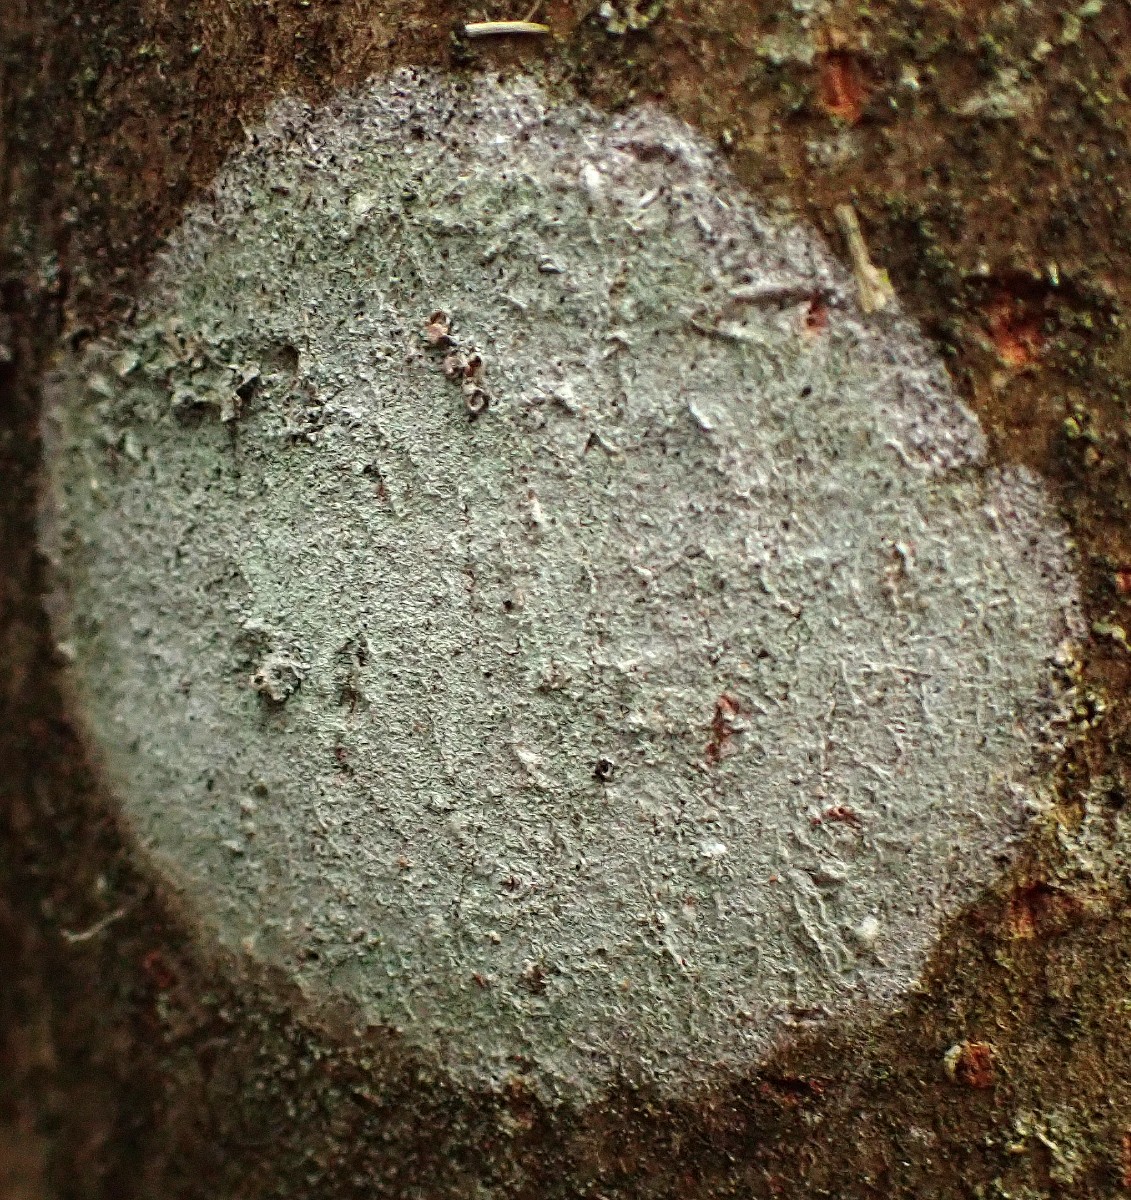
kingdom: Fungi
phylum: Ascomycota
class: Lecanoromycetes
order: Ostropales
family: Phlyctidaceae
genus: Phlyctis
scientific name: Phlyctis argena
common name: almindelig sølvlav
